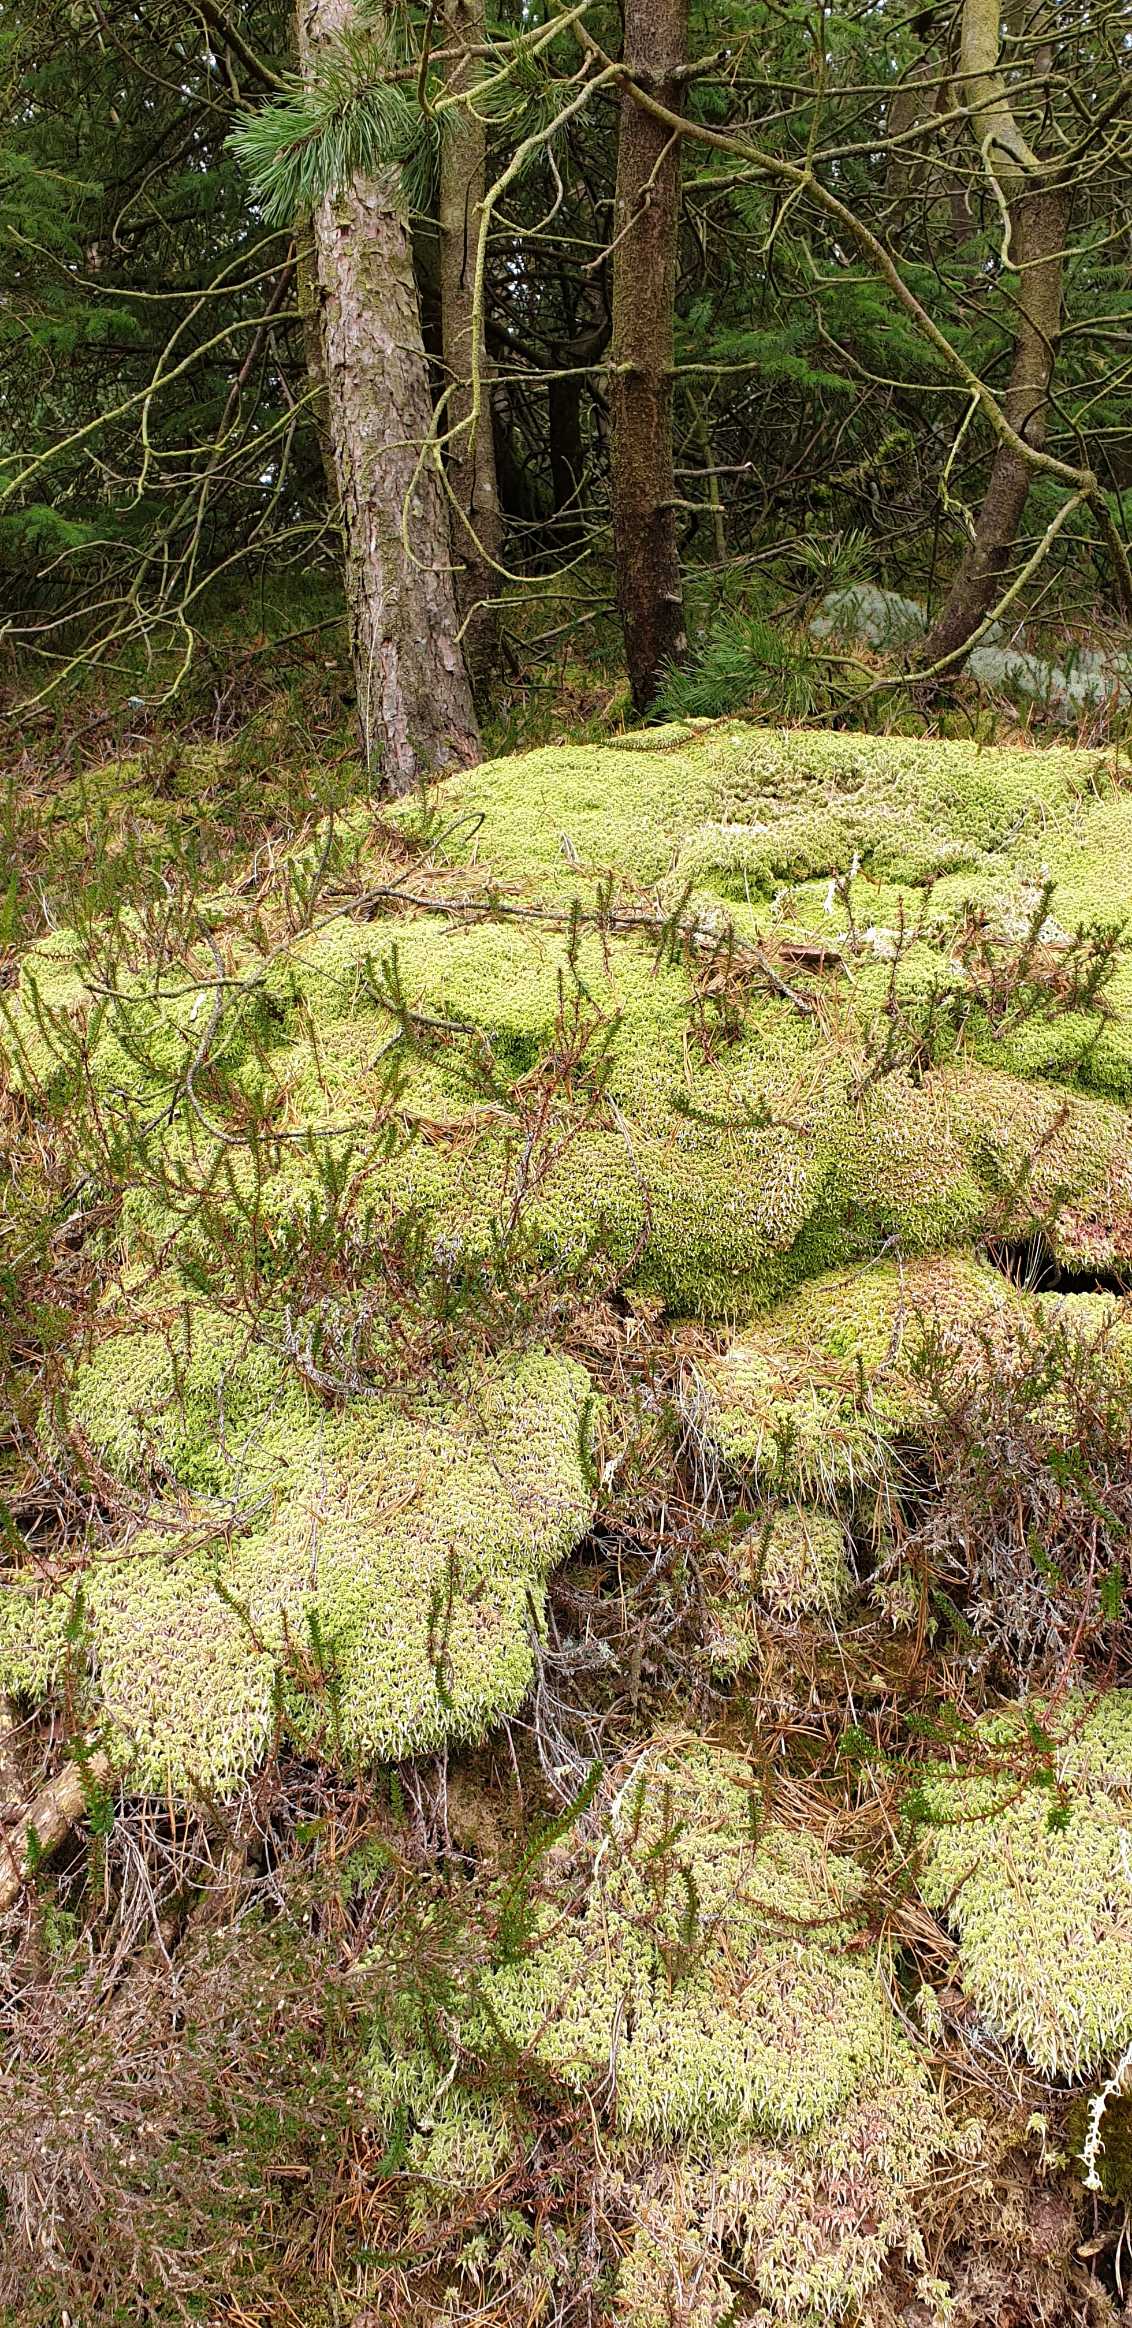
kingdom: Plantae
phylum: Bryophyta
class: Sphagnopsida
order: Sphagnales
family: Sphagnaceae
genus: Sphagnum
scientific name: Sphagnum
